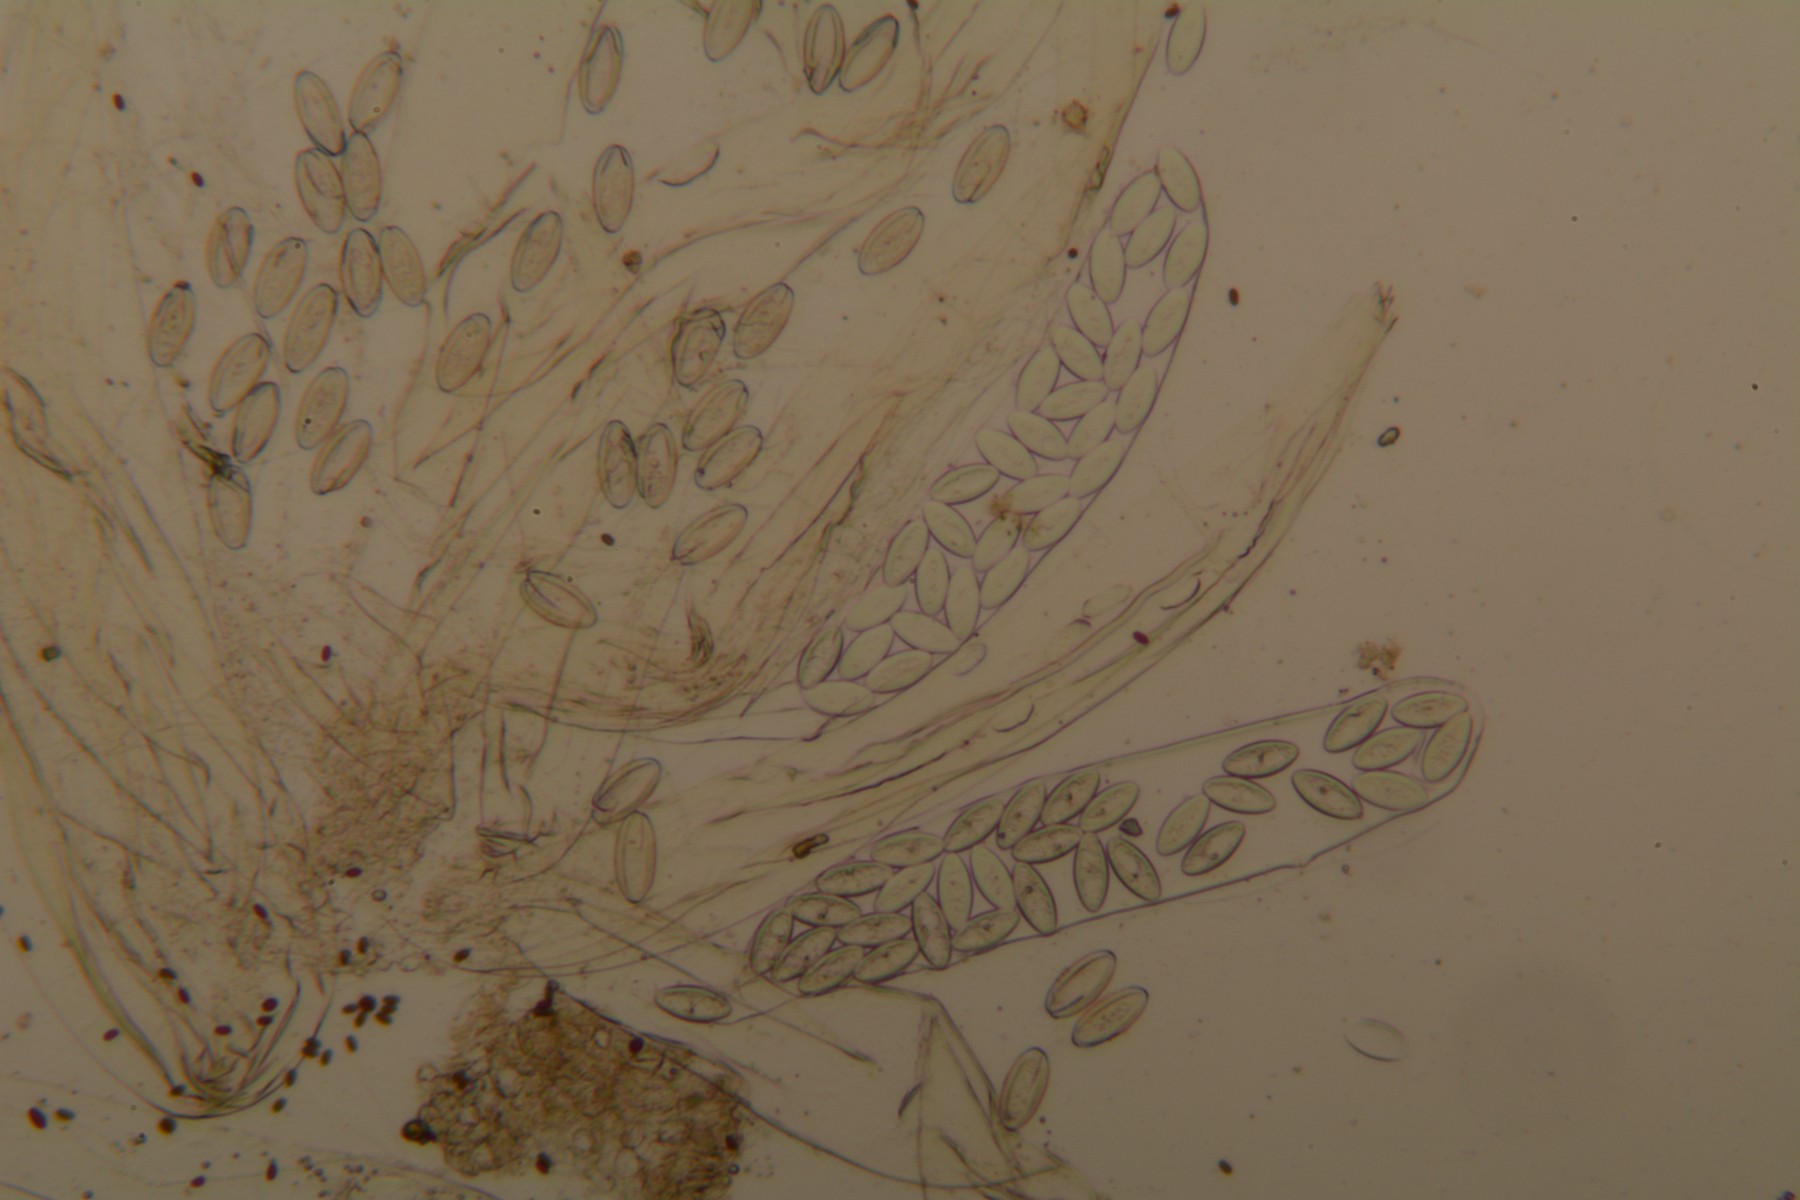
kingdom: Fungi
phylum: Ascomycota
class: Pezizomycetes
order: Pezizales
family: Ascobolaceae
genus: Thecotheus
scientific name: Thecotheus pelletieri
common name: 32-sporet prikbæger
